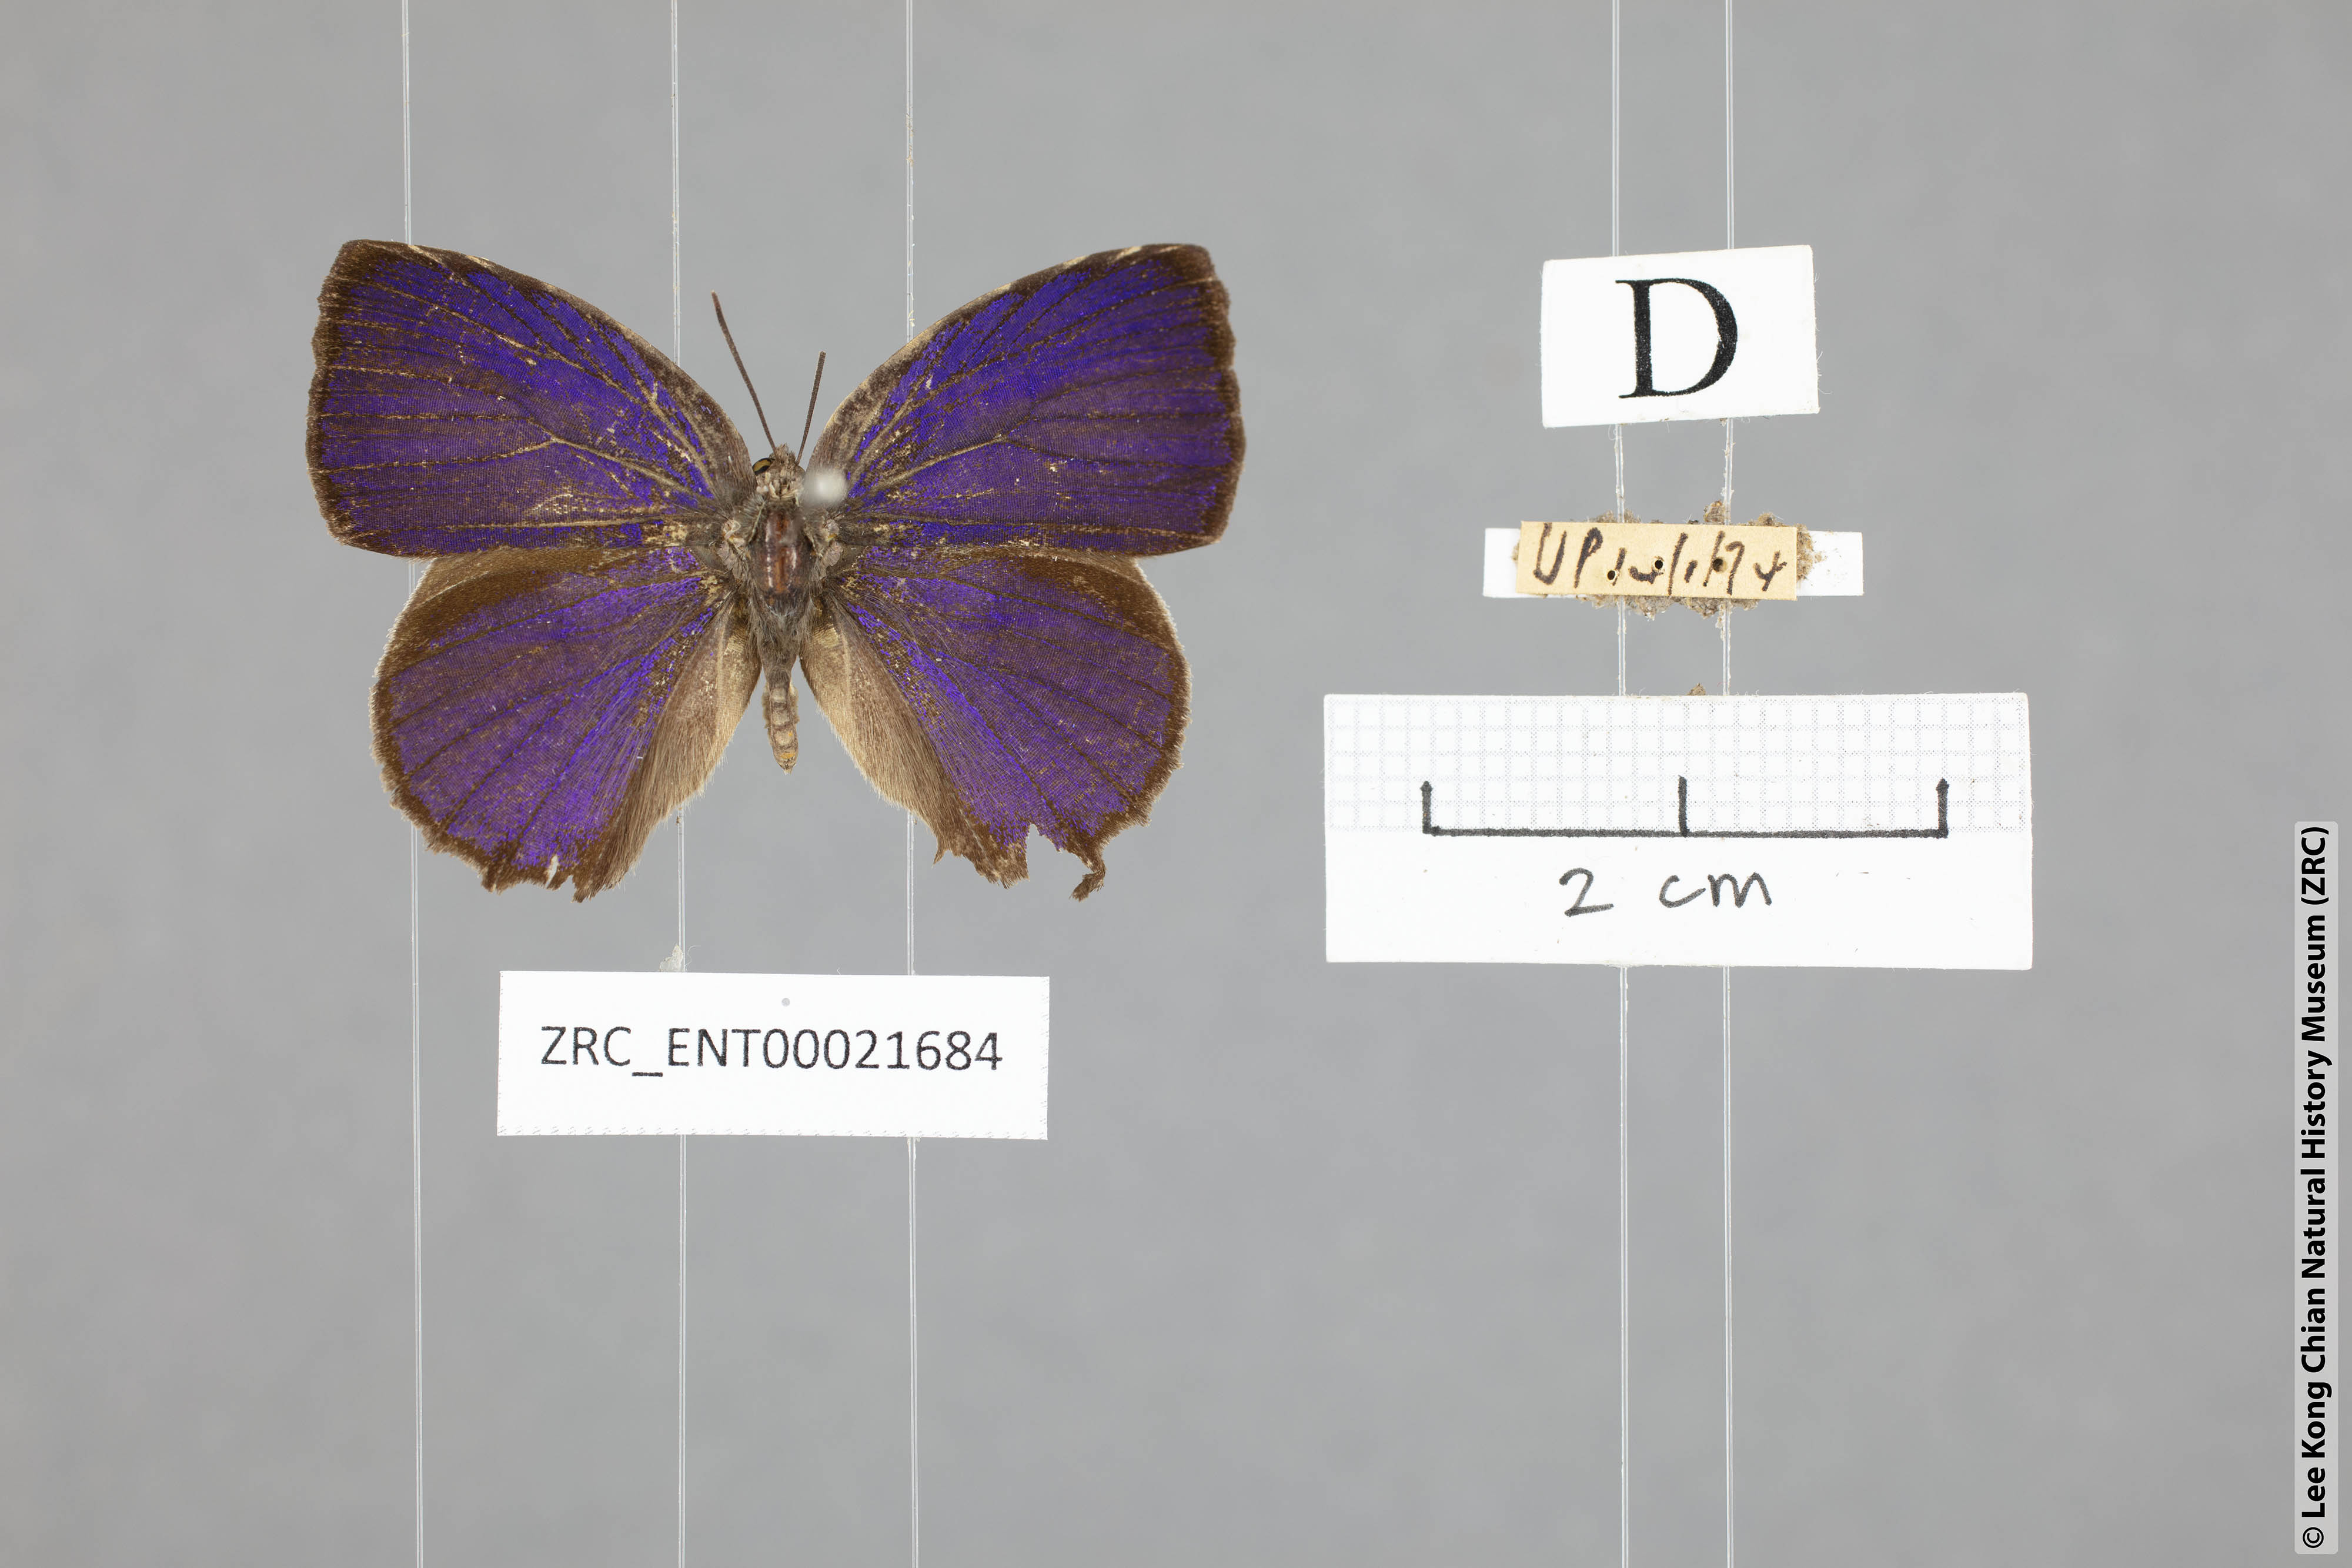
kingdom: Animalia
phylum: Arthropoda
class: Insecta
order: Lepidoptera
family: Lycaenidae
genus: Mahathala
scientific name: Mahathala ameria
